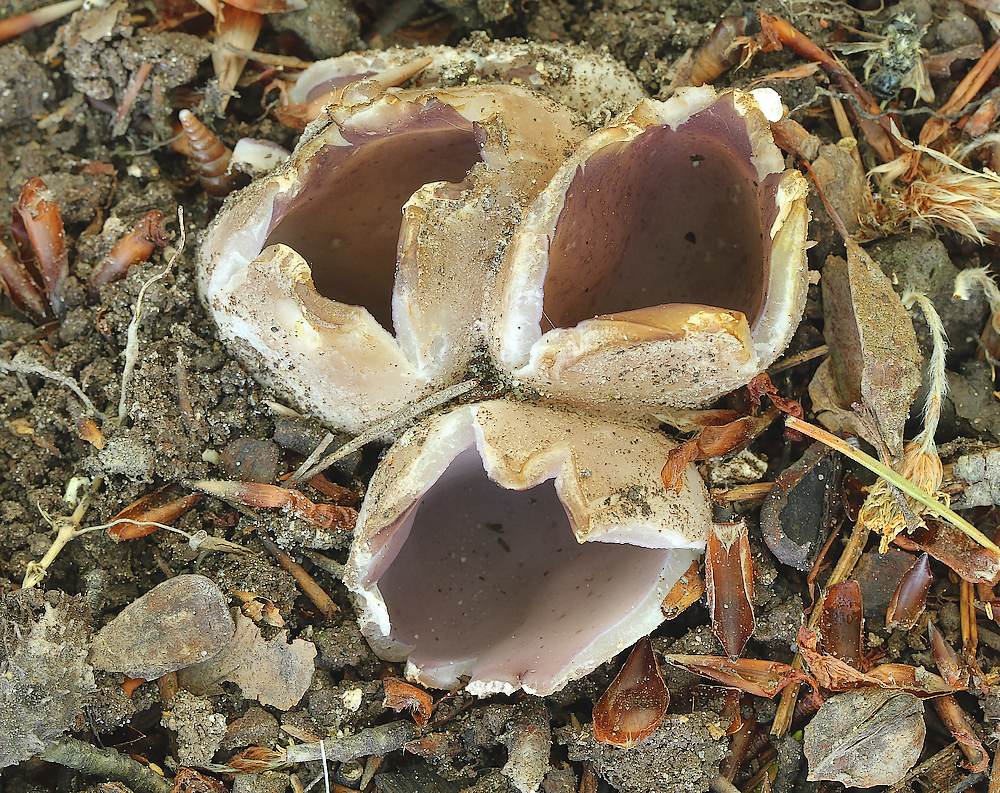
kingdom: Fungi
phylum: Ascomycota
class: Pezizomycetes
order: Pezizales
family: Pezizaceae
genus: Sarcosphaera
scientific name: Sarcosphaera coronaria
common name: stjernebæger
